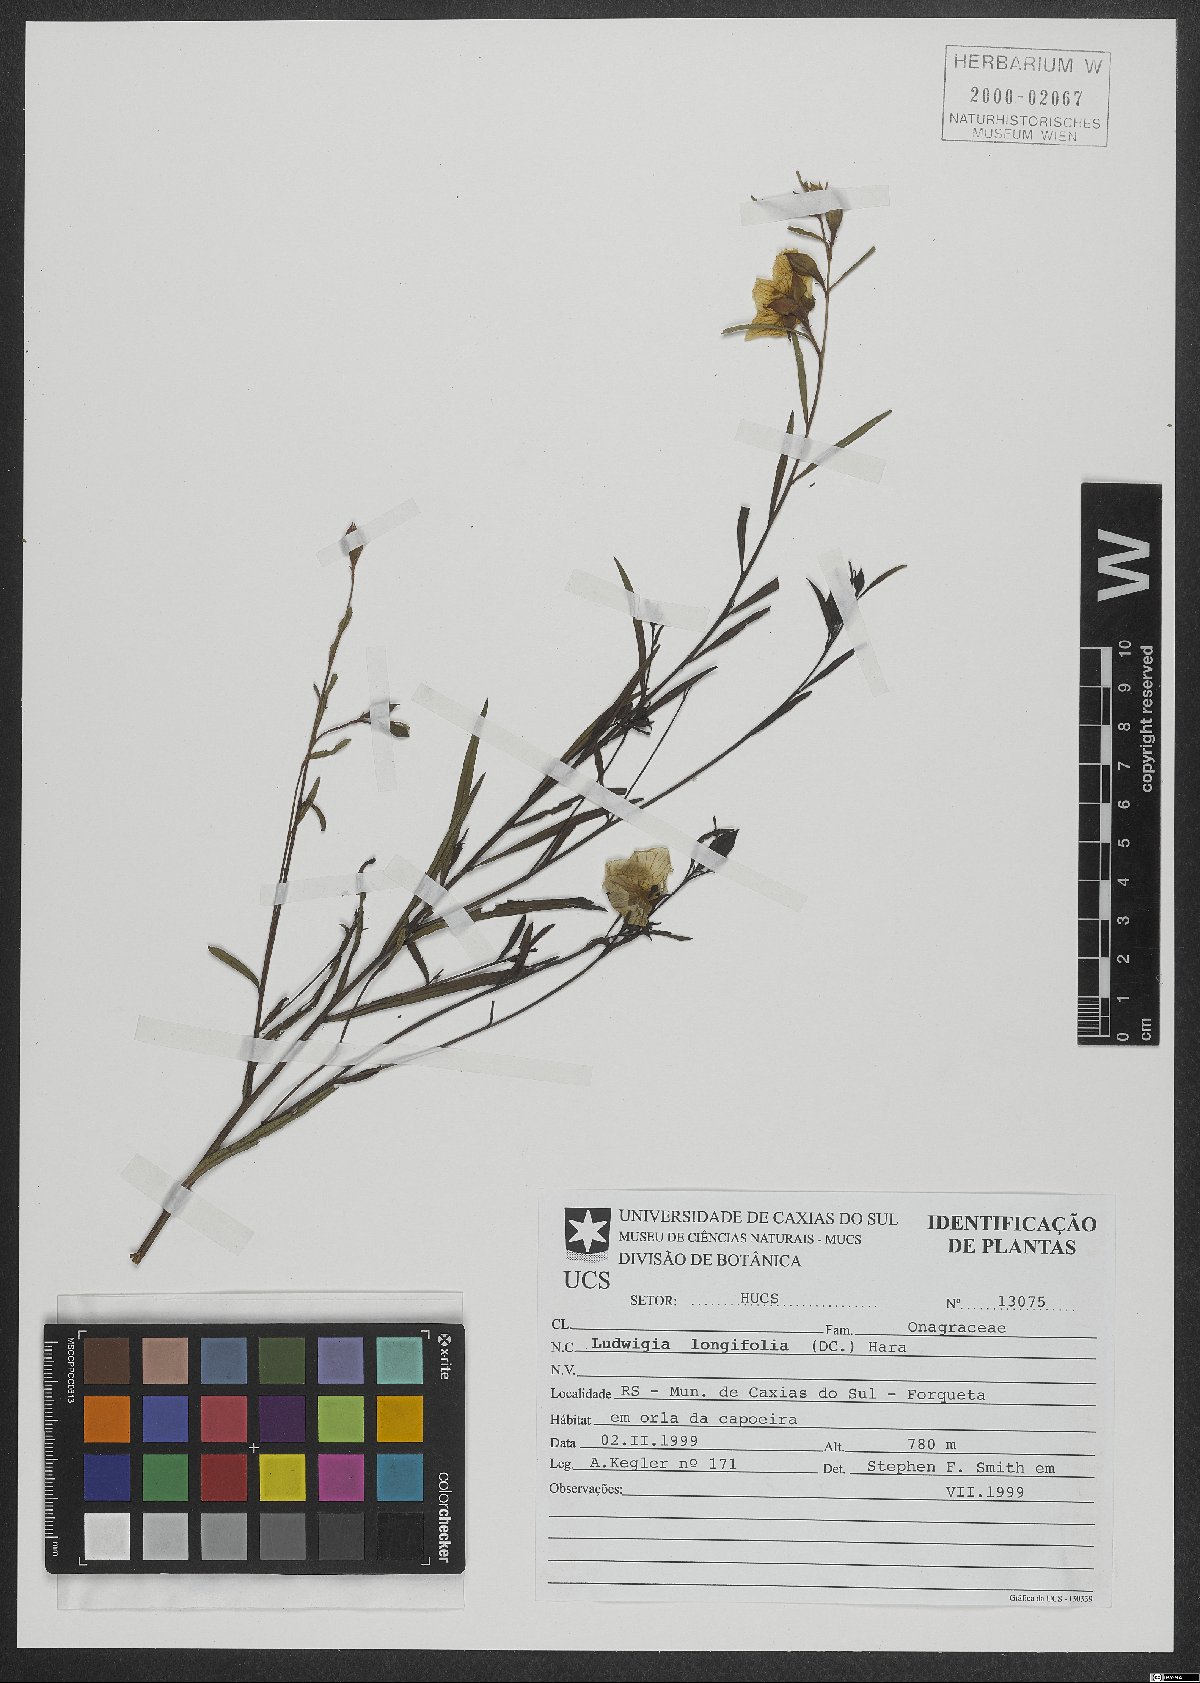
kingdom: Plantae
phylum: Tracheophyta
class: Magnoliopsida
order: Myrtales
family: Onagraceae
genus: Ludwigia
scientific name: Ludwigia longifolia
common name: Longleaf primrose-willow
